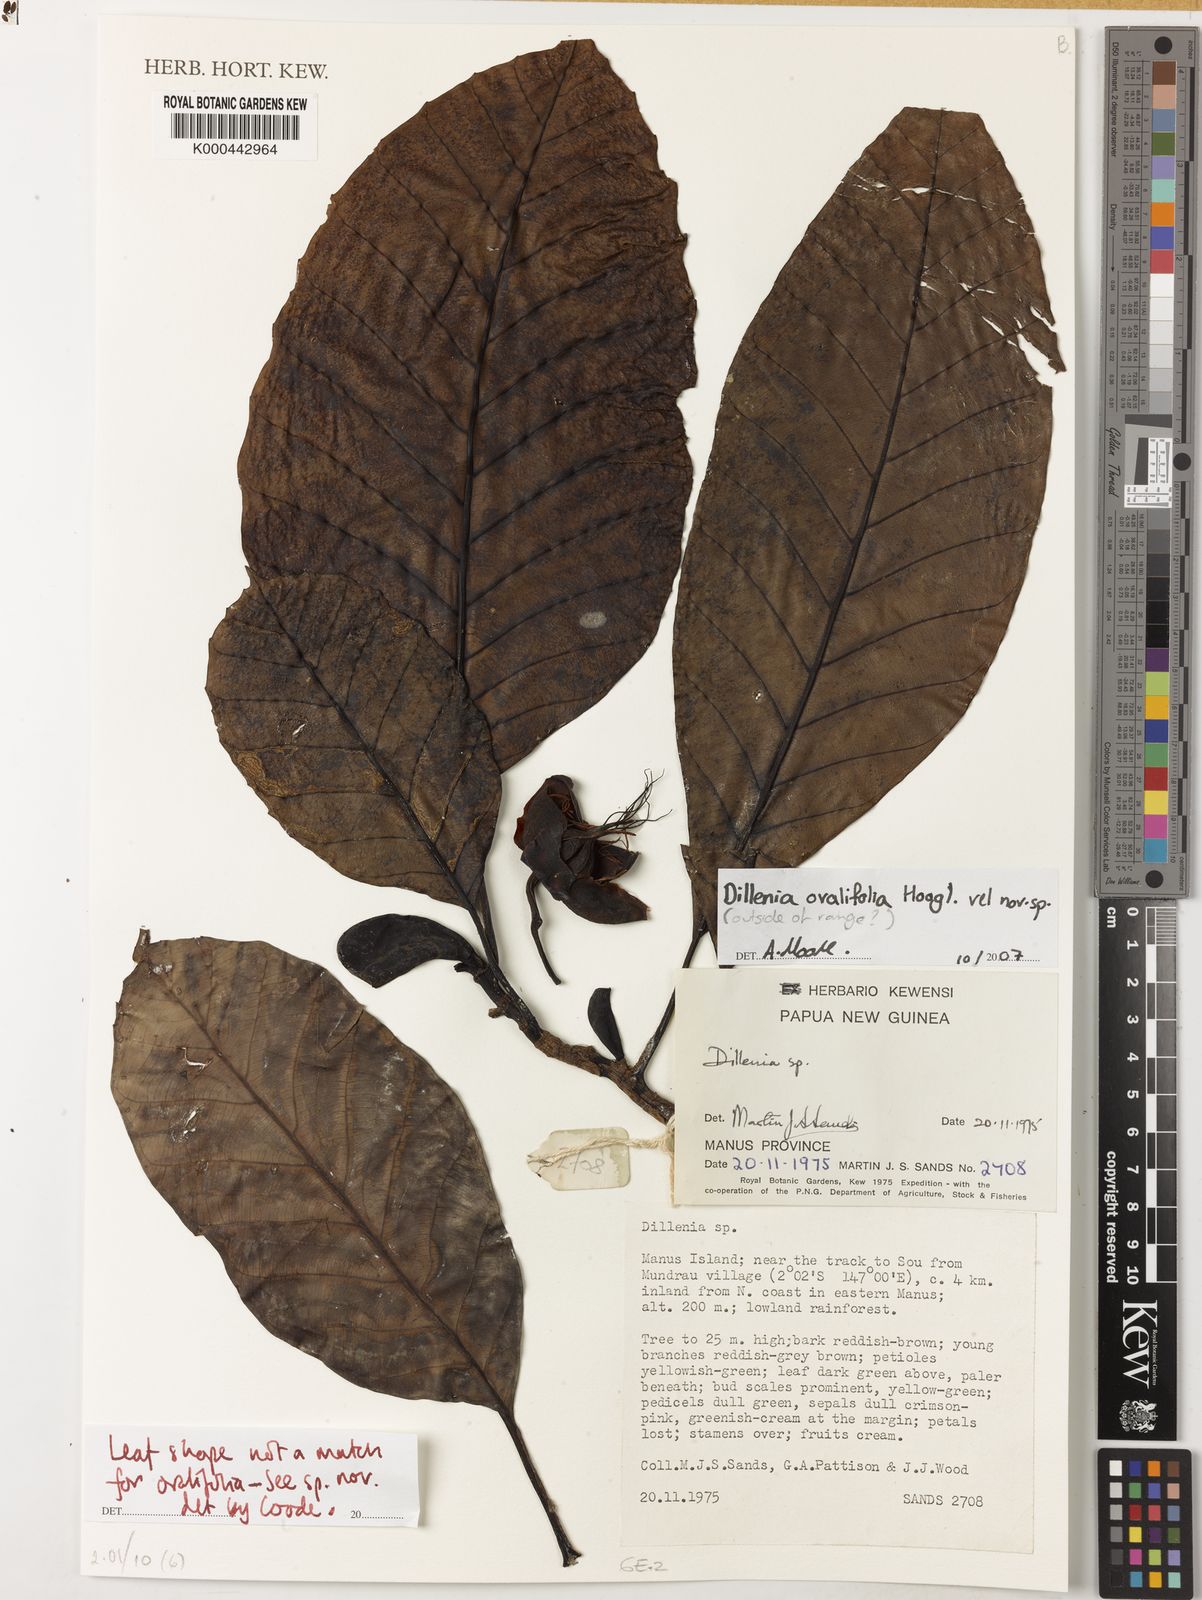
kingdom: Plantae
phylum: Tracheophyta
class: Magnoliopsida
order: Dilleniales
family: Dilleniaceae
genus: Dillenia
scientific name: Dillenia ovalifolia
